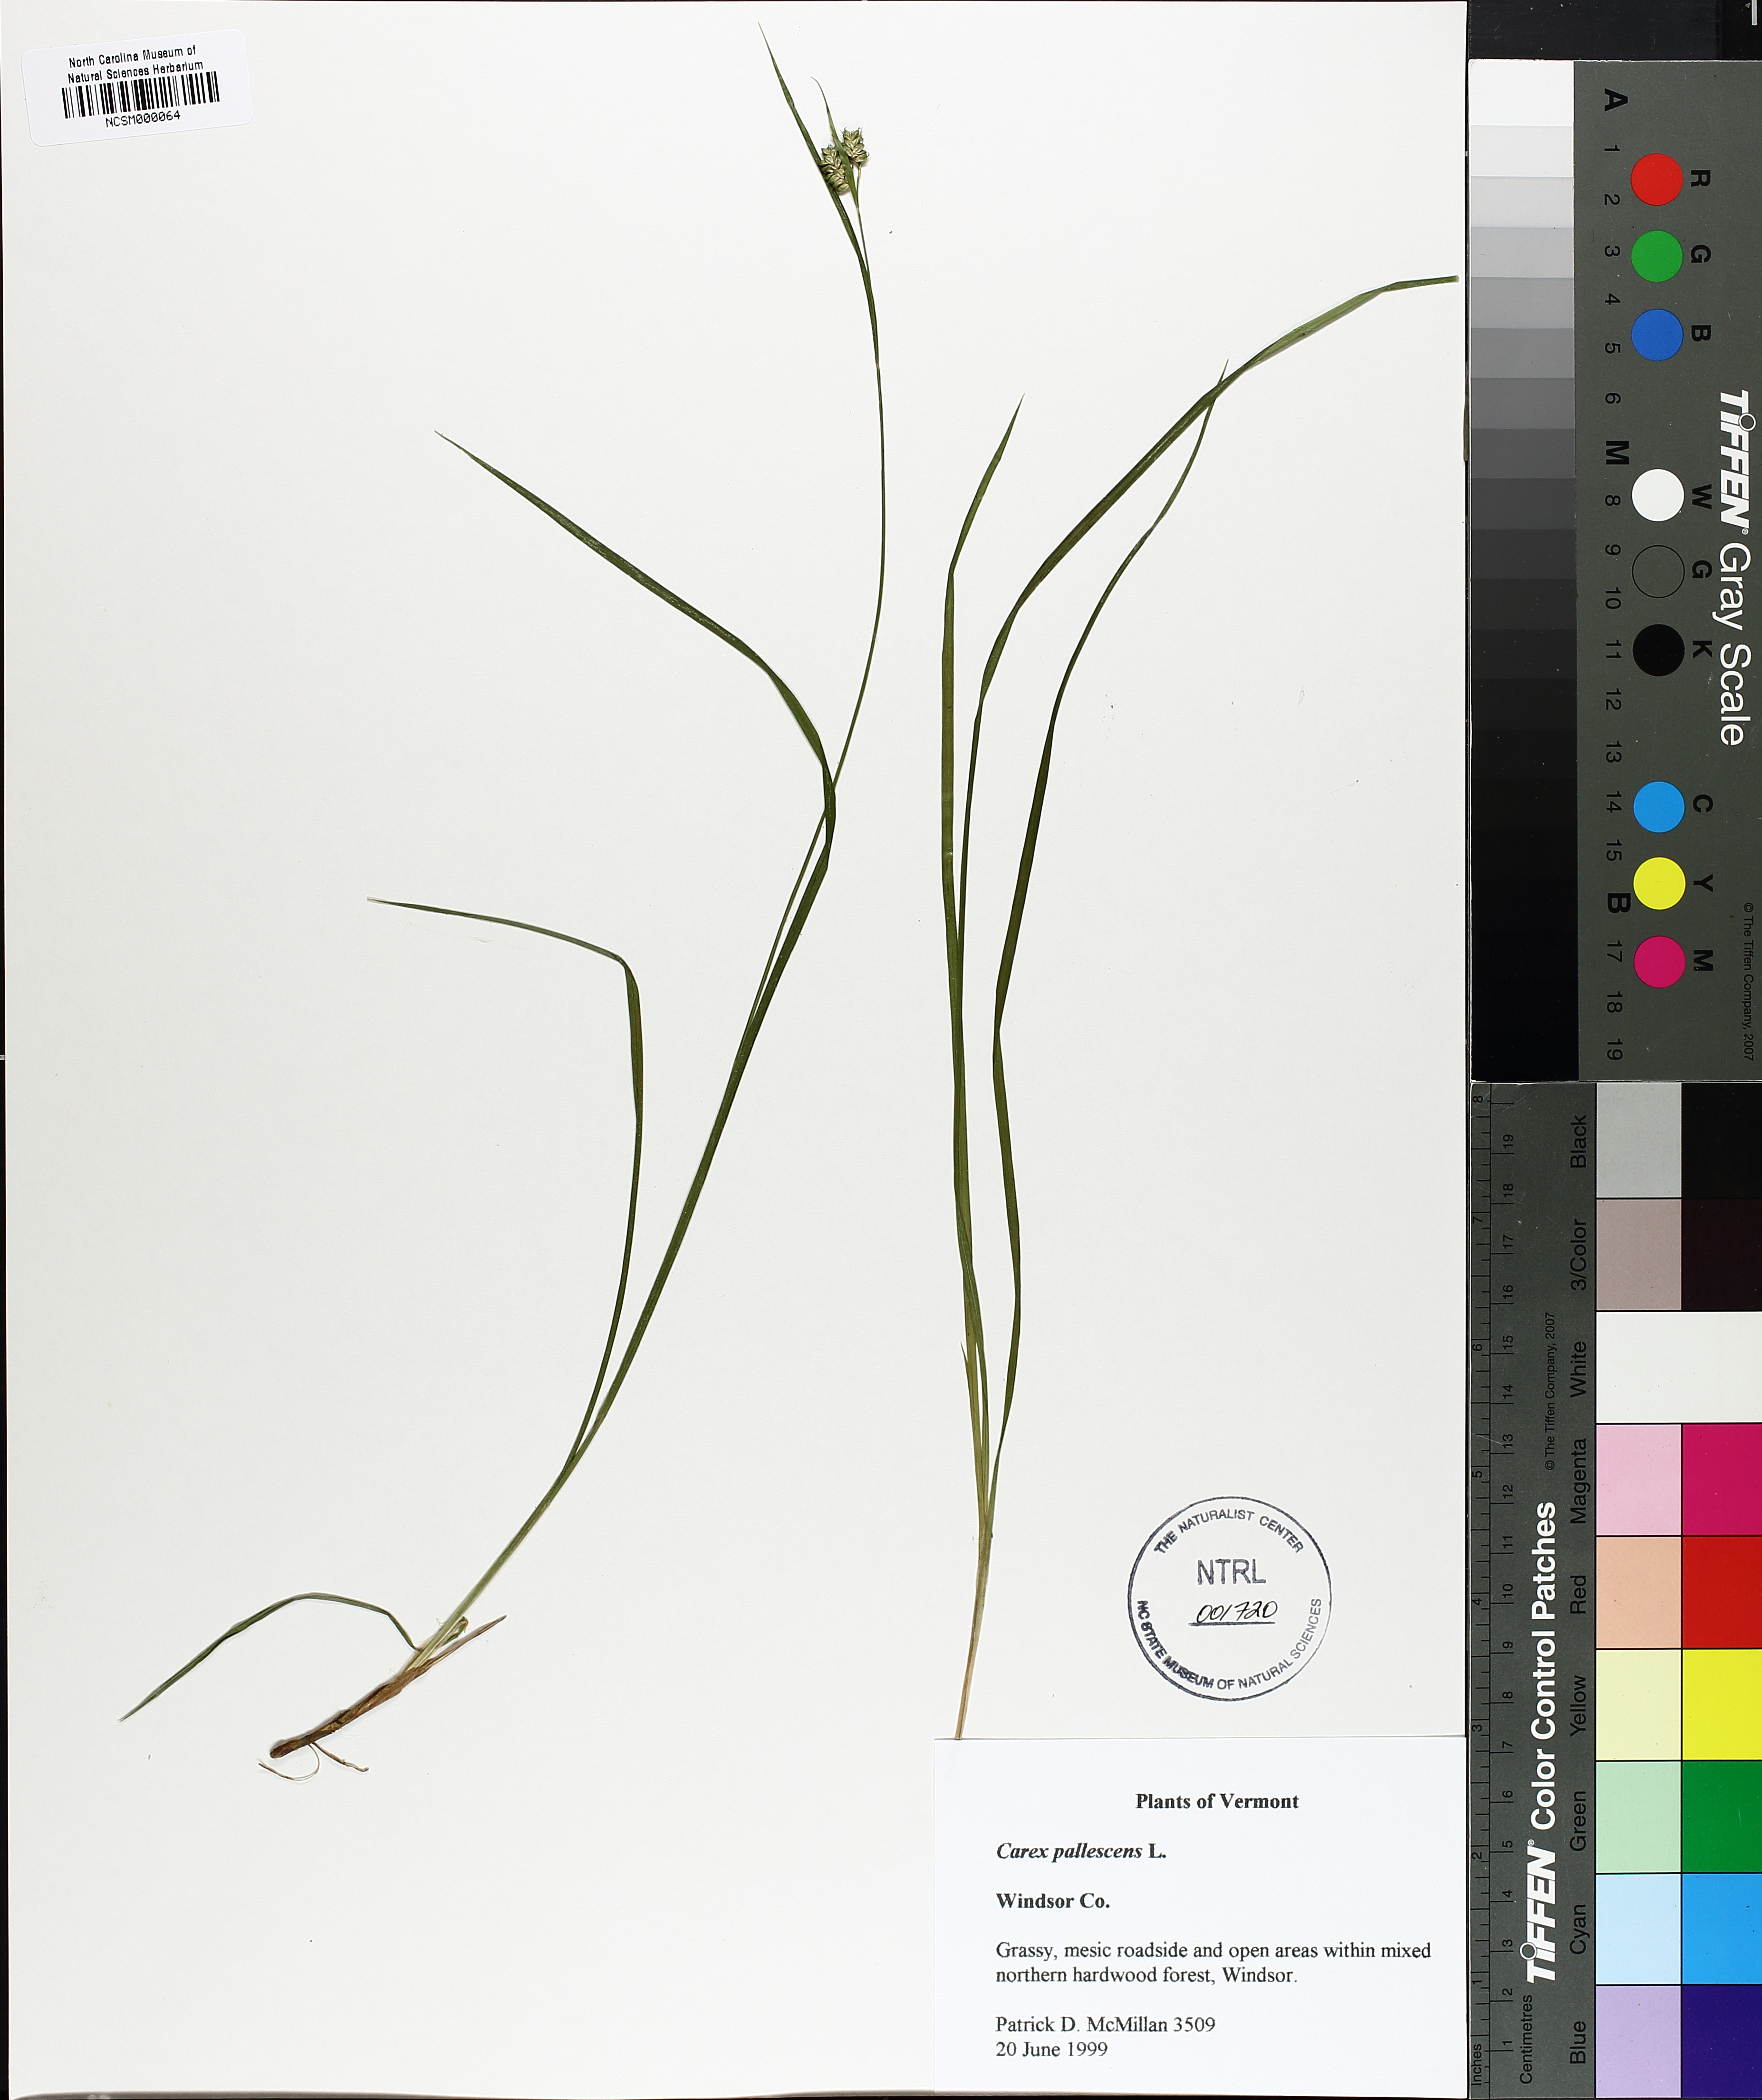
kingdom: Plantae
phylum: Tracheophyta
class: Liliopsida
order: Poales
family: Cyperaceae
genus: Carex
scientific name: Carex pallescens
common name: Pale sedge
